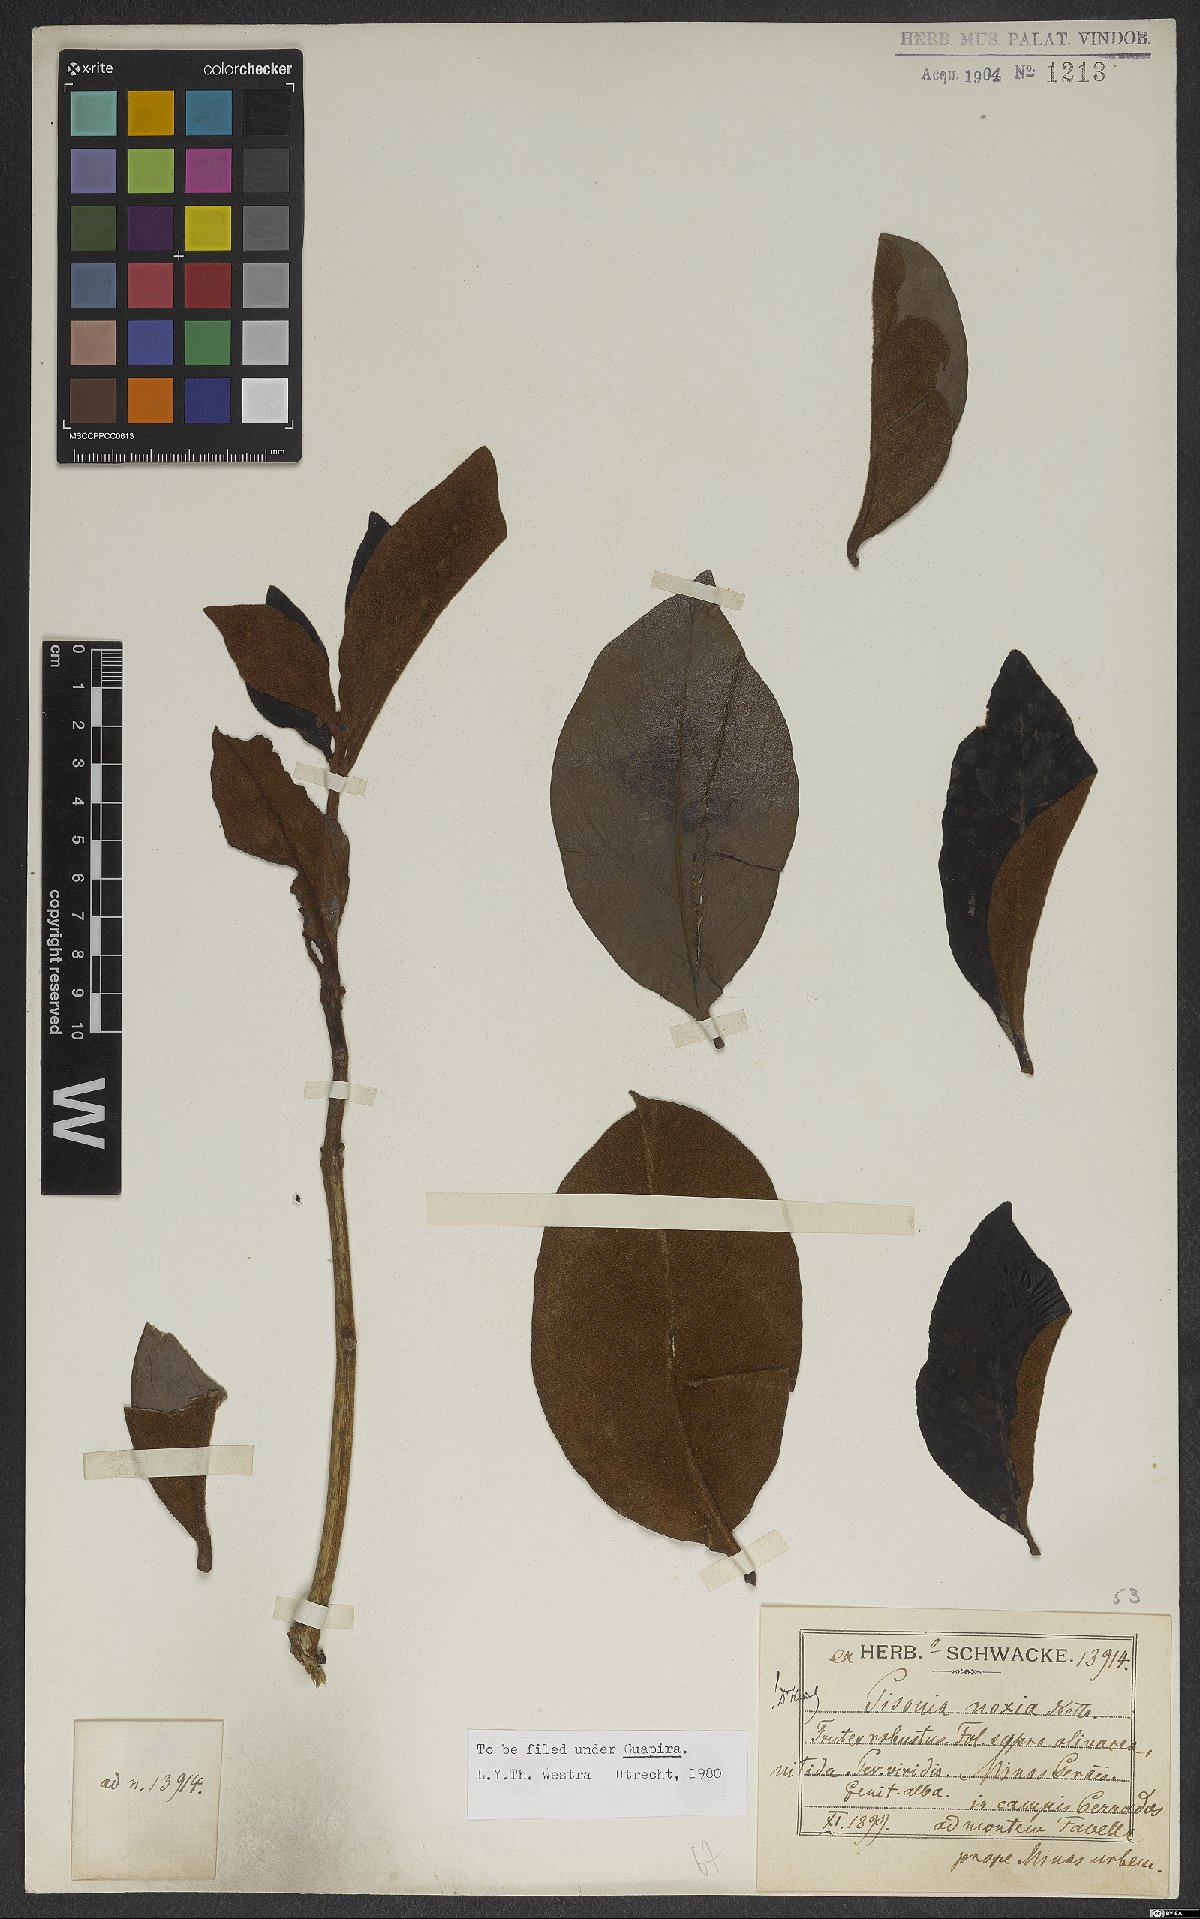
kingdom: Plantae
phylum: Tracheophyta
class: Magnoliopsida
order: Caryophyllales
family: Nyctaginaceae
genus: Guapira
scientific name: Guapira noxia
